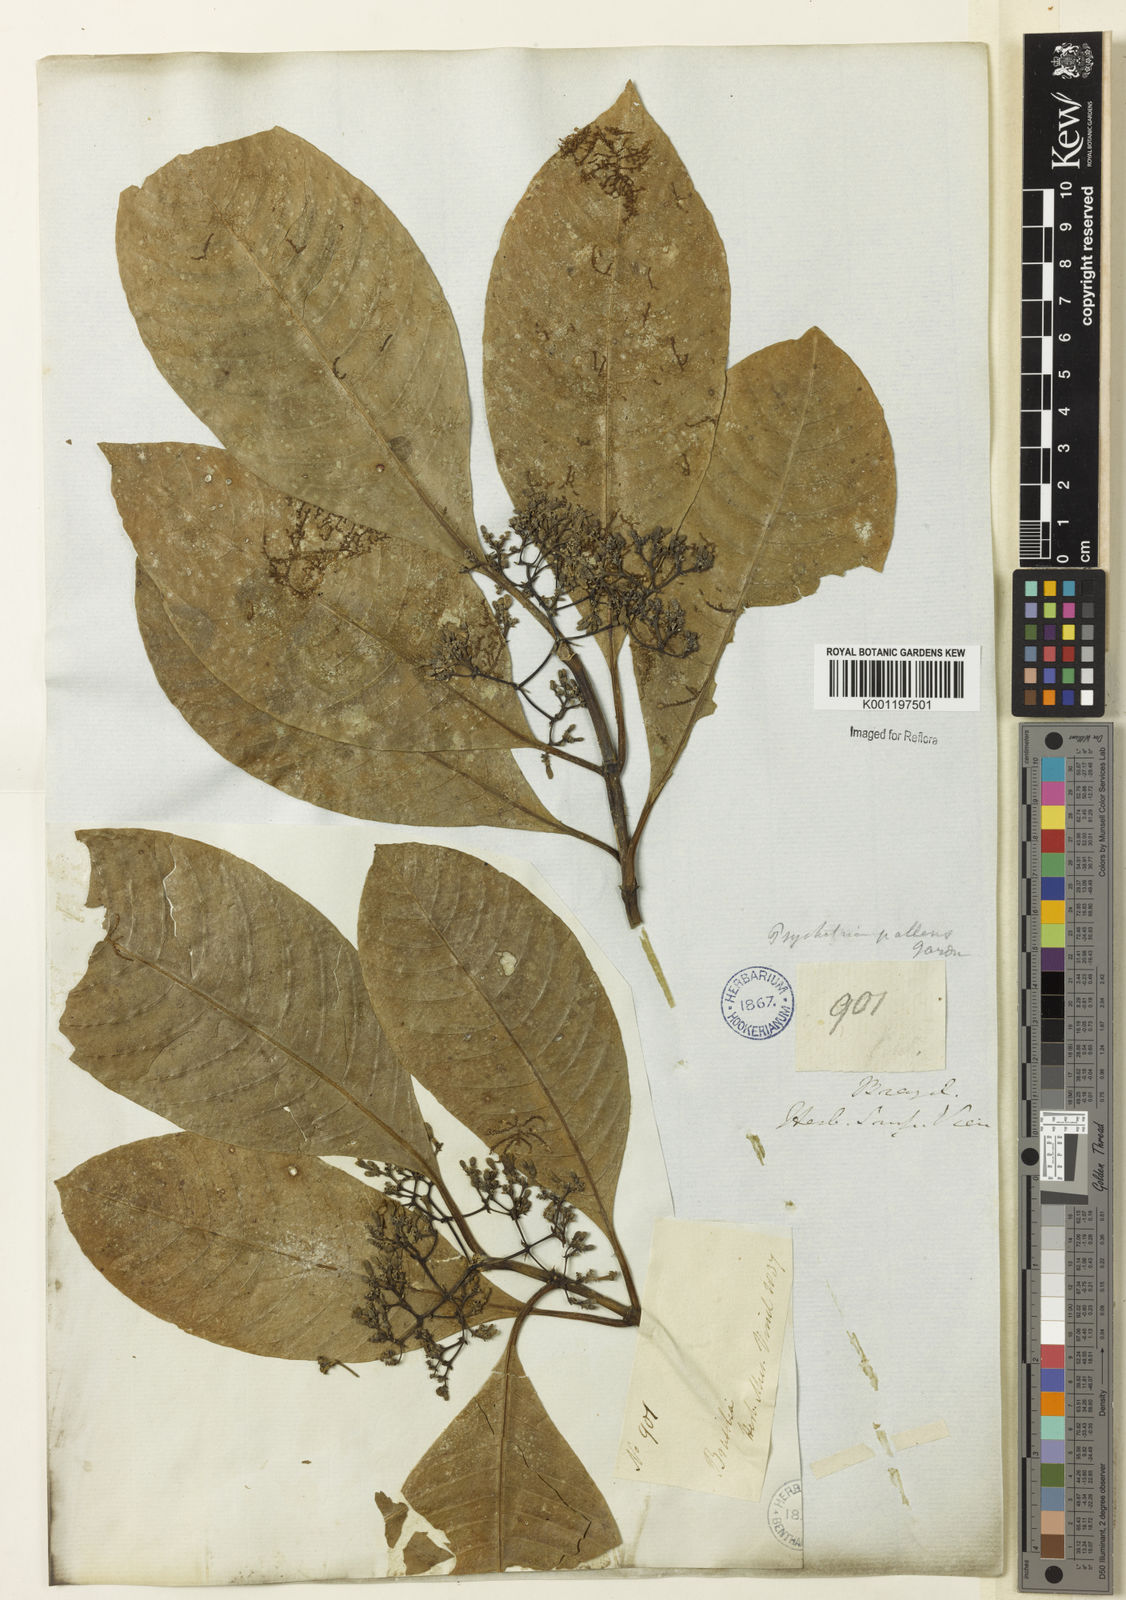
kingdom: Plantae
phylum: Tracheophyta
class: Magnoliopsida
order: Gentianales
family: Rubiaceae
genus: Psychotria
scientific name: Psychotria pallens
